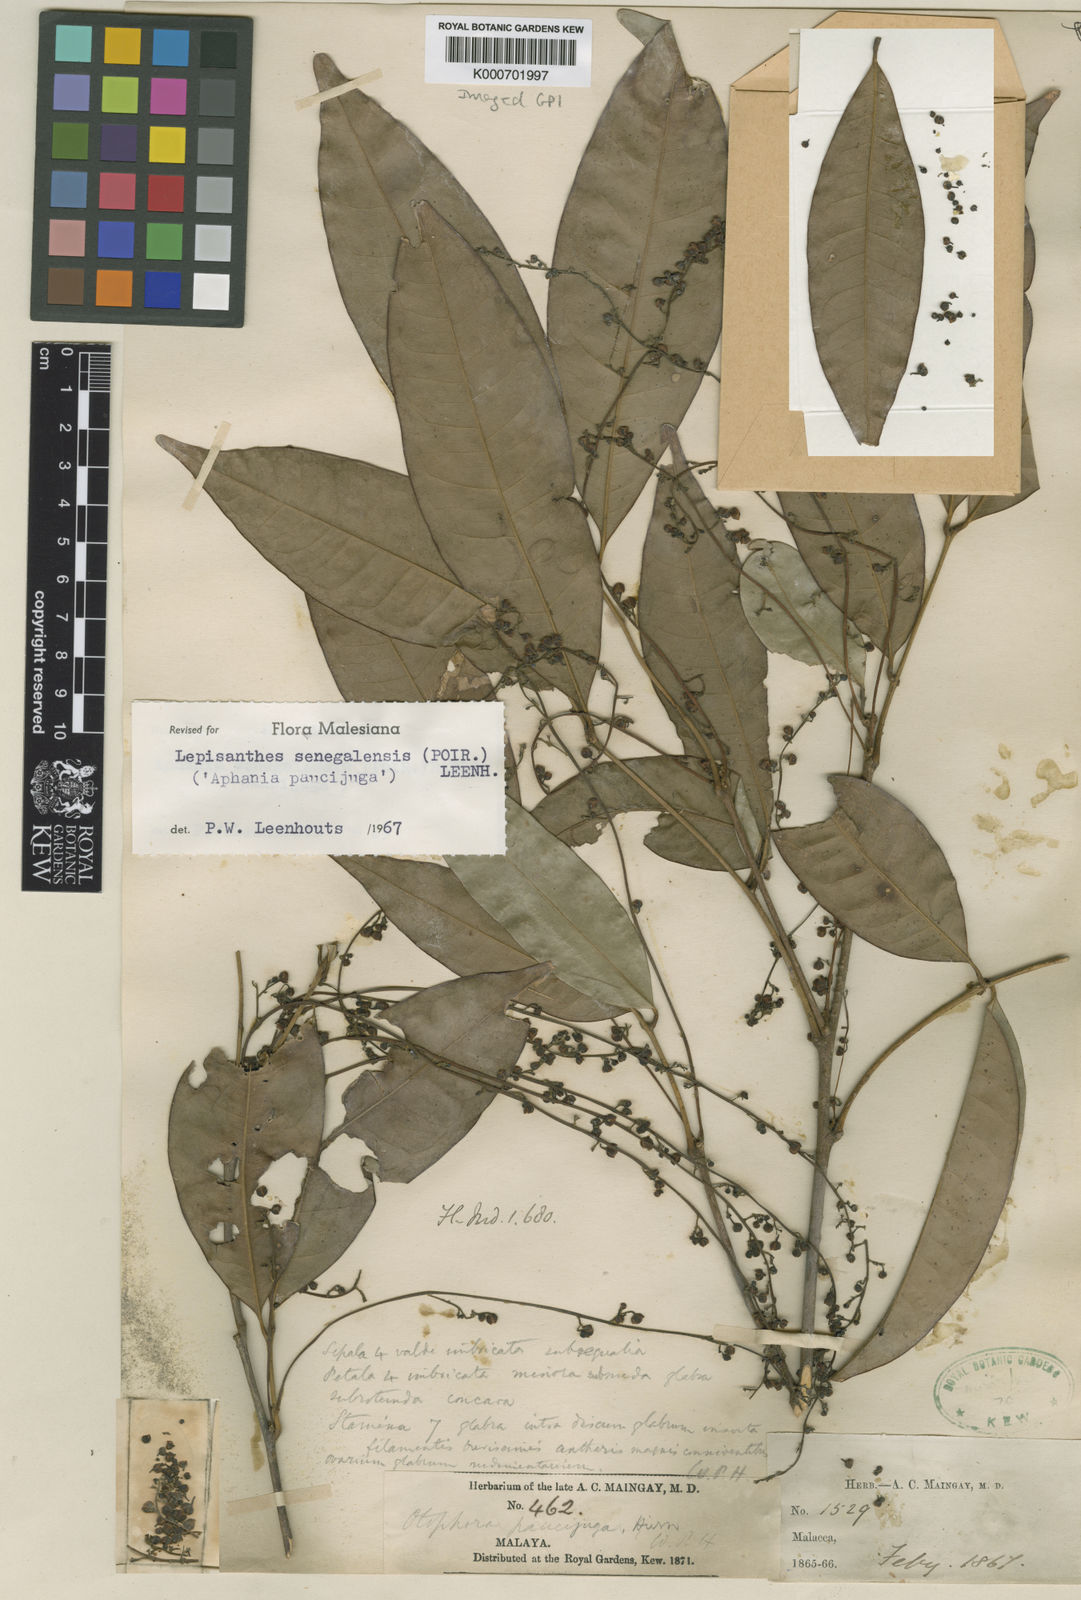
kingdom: Plantae
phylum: Tracheophyta
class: Magnoliopsida
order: Sapindales
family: Sapindaceae
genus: Lepisanthes
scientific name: Lepisanthes senegalensis
